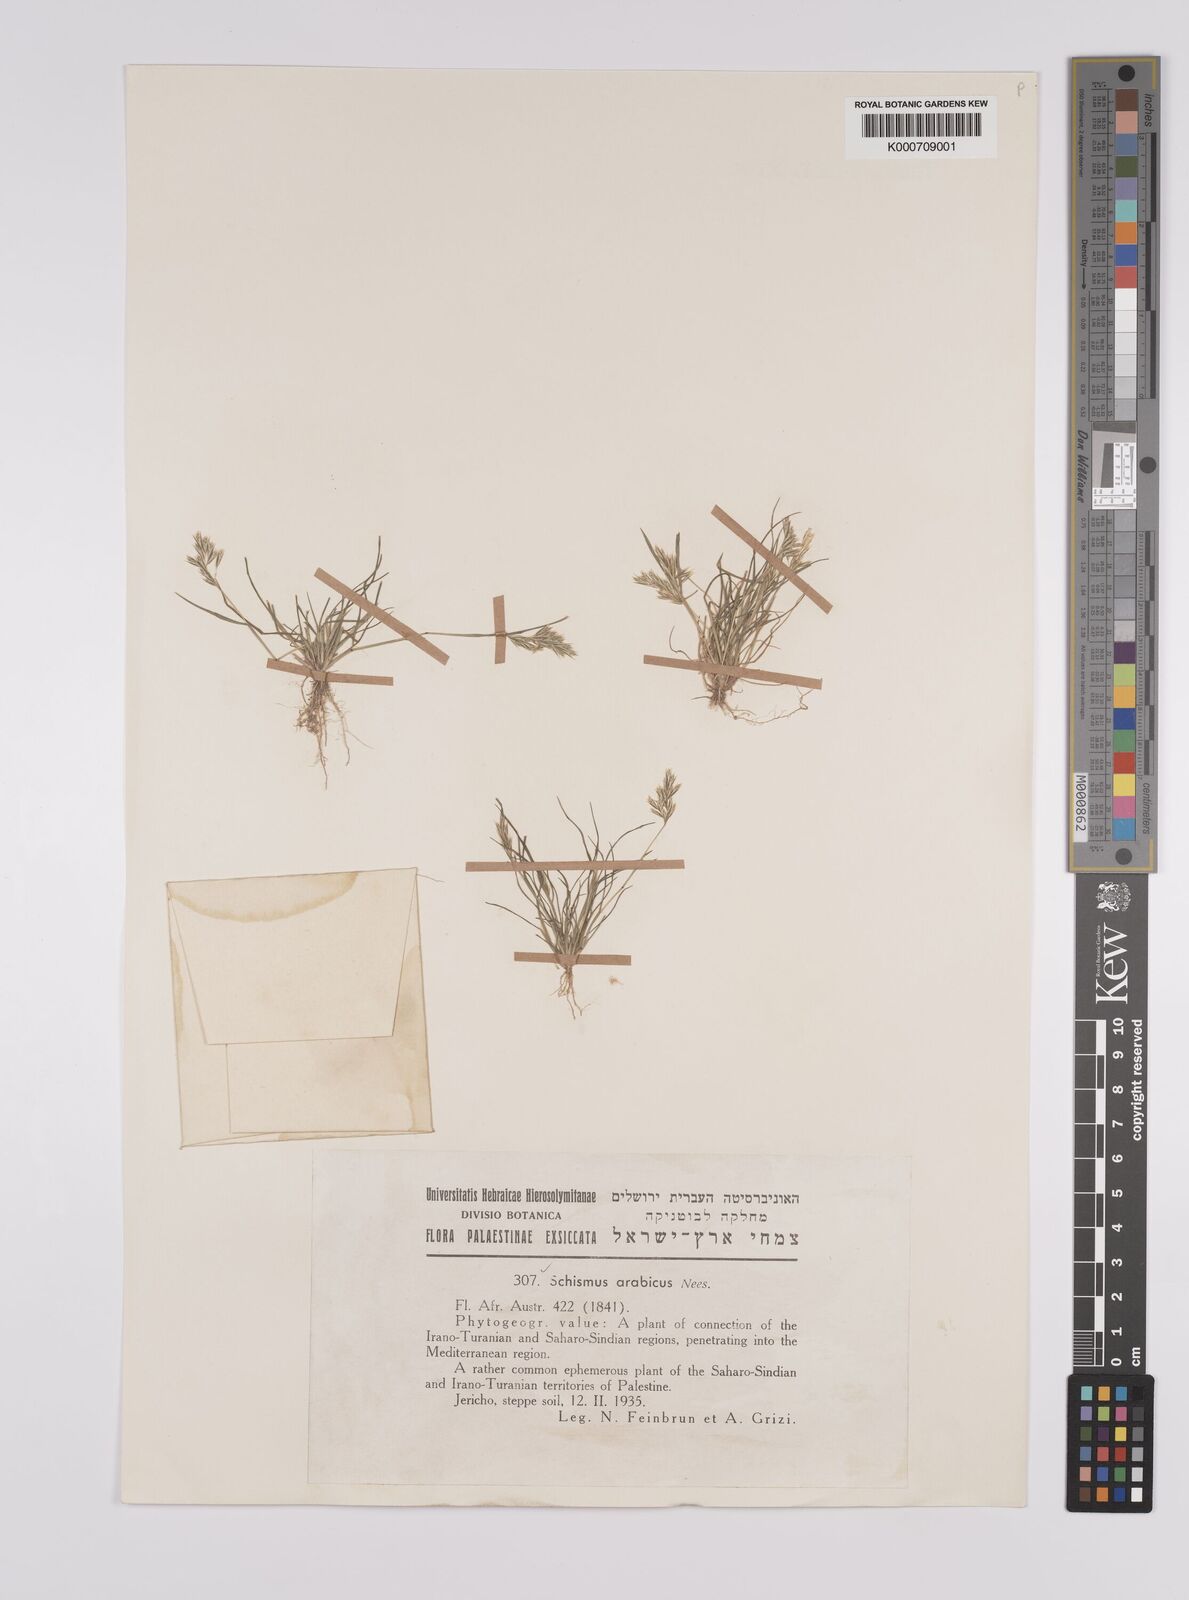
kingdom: Plantae
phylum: Tracheophyta
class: Liliopsida
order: Poales
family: Poaceae
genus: Schismus
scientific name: Schismus arabicus
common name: Arabian schismus
